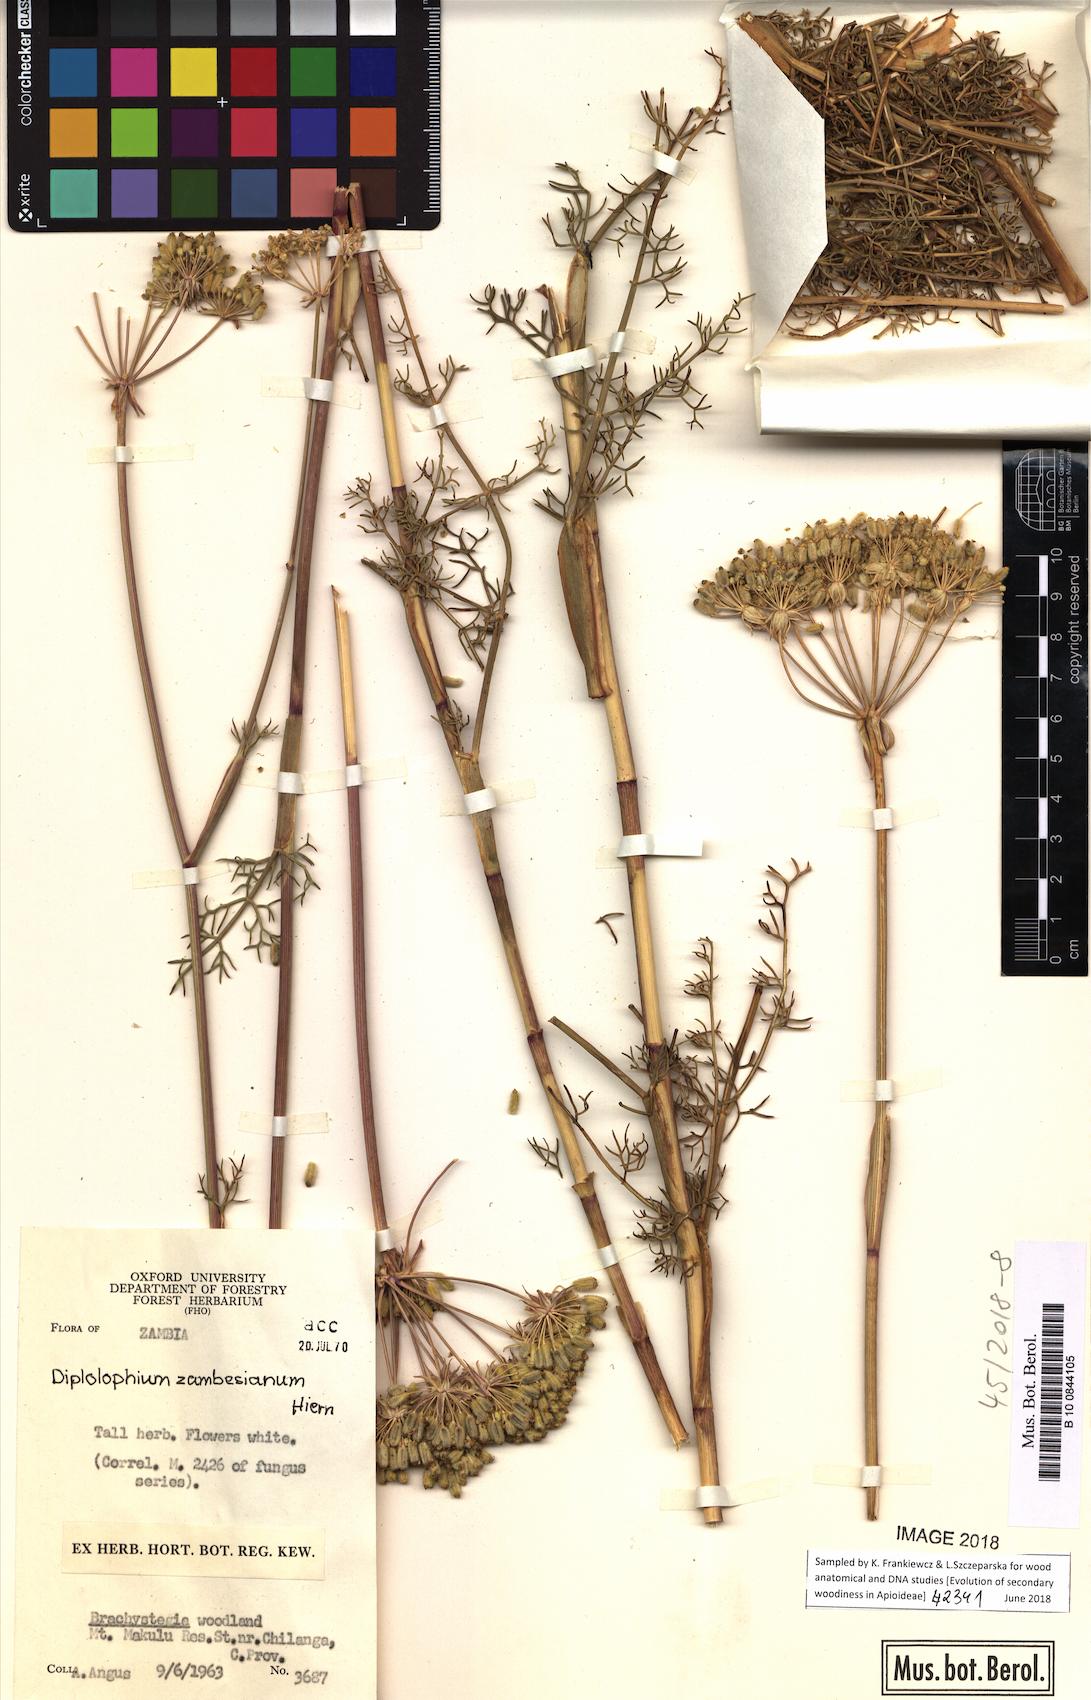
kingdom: Plantae
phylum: Tracheophyta
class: Magnoliopsida
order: Apiales
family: Apiaceae
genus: Diplolophium
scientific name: Diplolophium zambesianum
